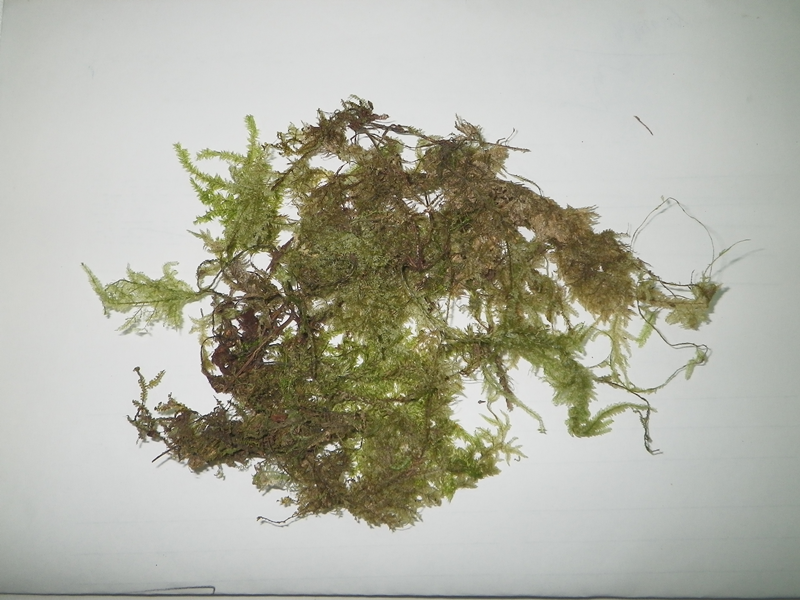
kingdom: Plantae
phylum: Bryophyta
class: Bryopsida
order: Hypnales
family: Trachylomataceae
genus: Trachyloma
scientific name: Trachyloma indicum
